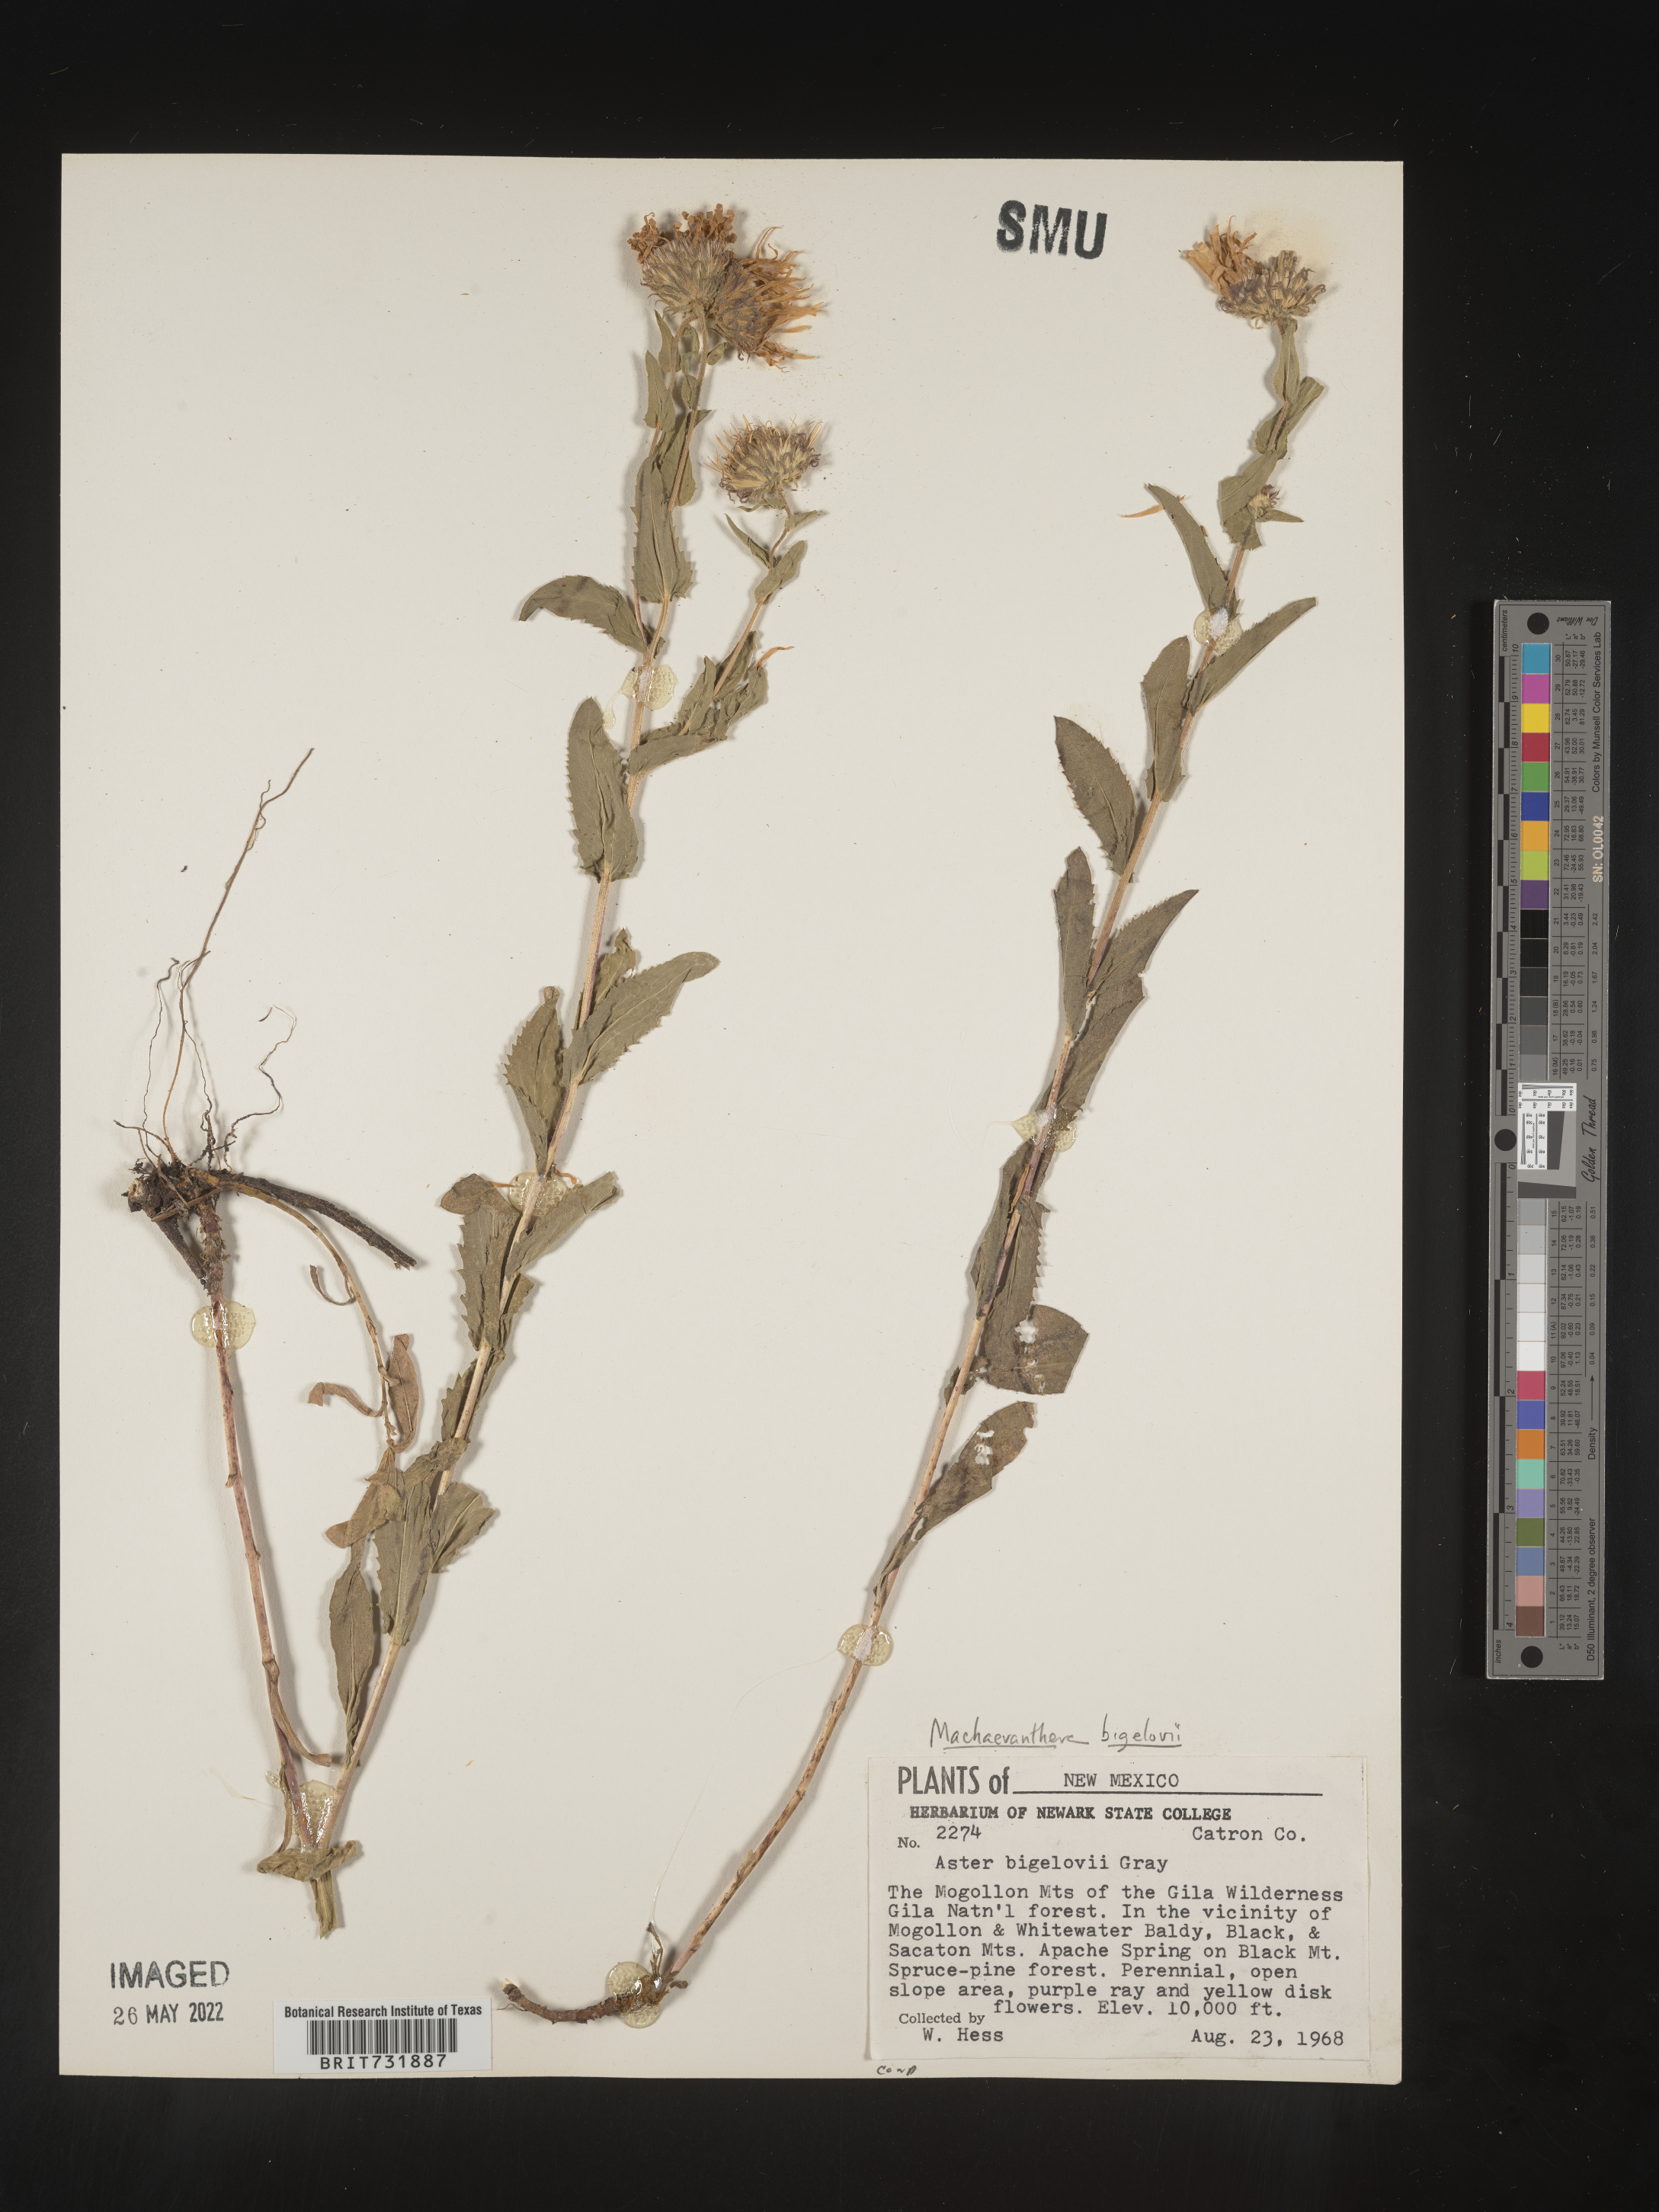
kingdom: Plantae
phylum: Tracheophyta
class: Magnoliopsida
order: Asterales
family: Asteraceae
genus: Dieteria
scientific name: Dieteria bigelovii
